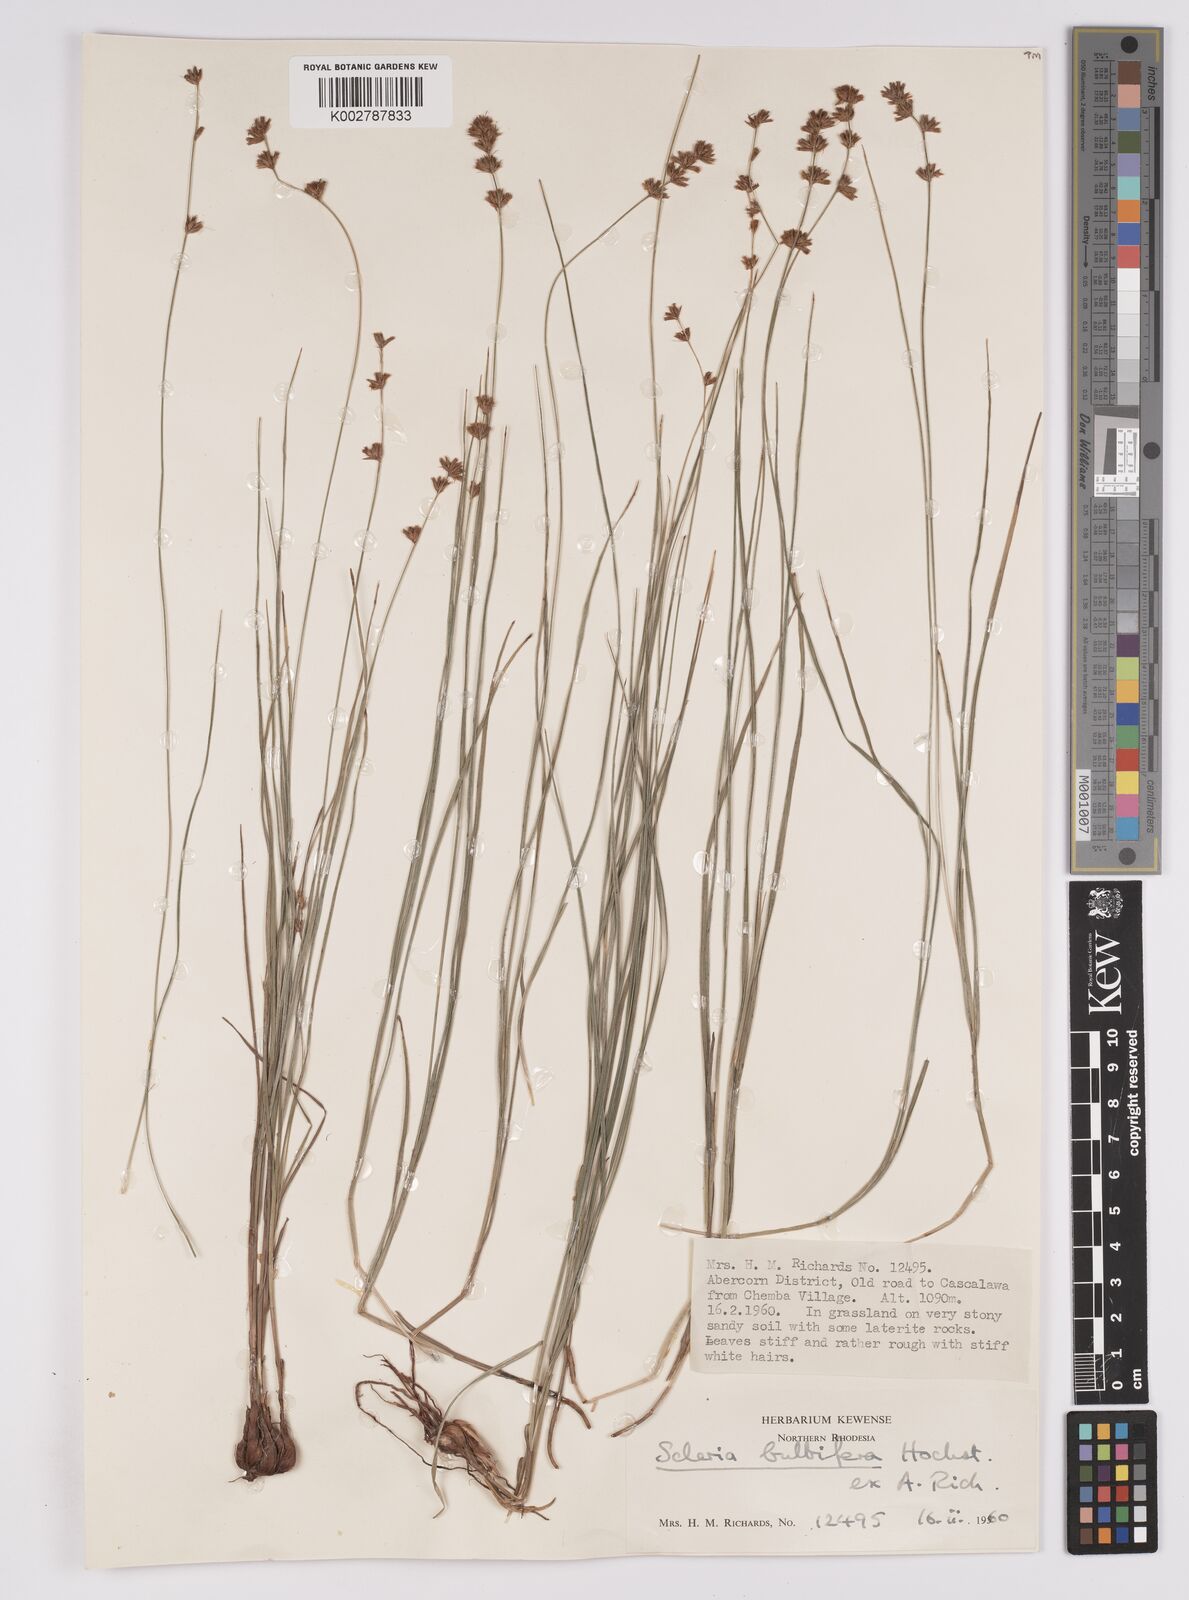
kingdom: Plantae
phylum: Tracheophyta
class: Liliopsida
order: Poales
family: Cyperaceae
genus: Scleria
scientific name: Scleria bulbifera
